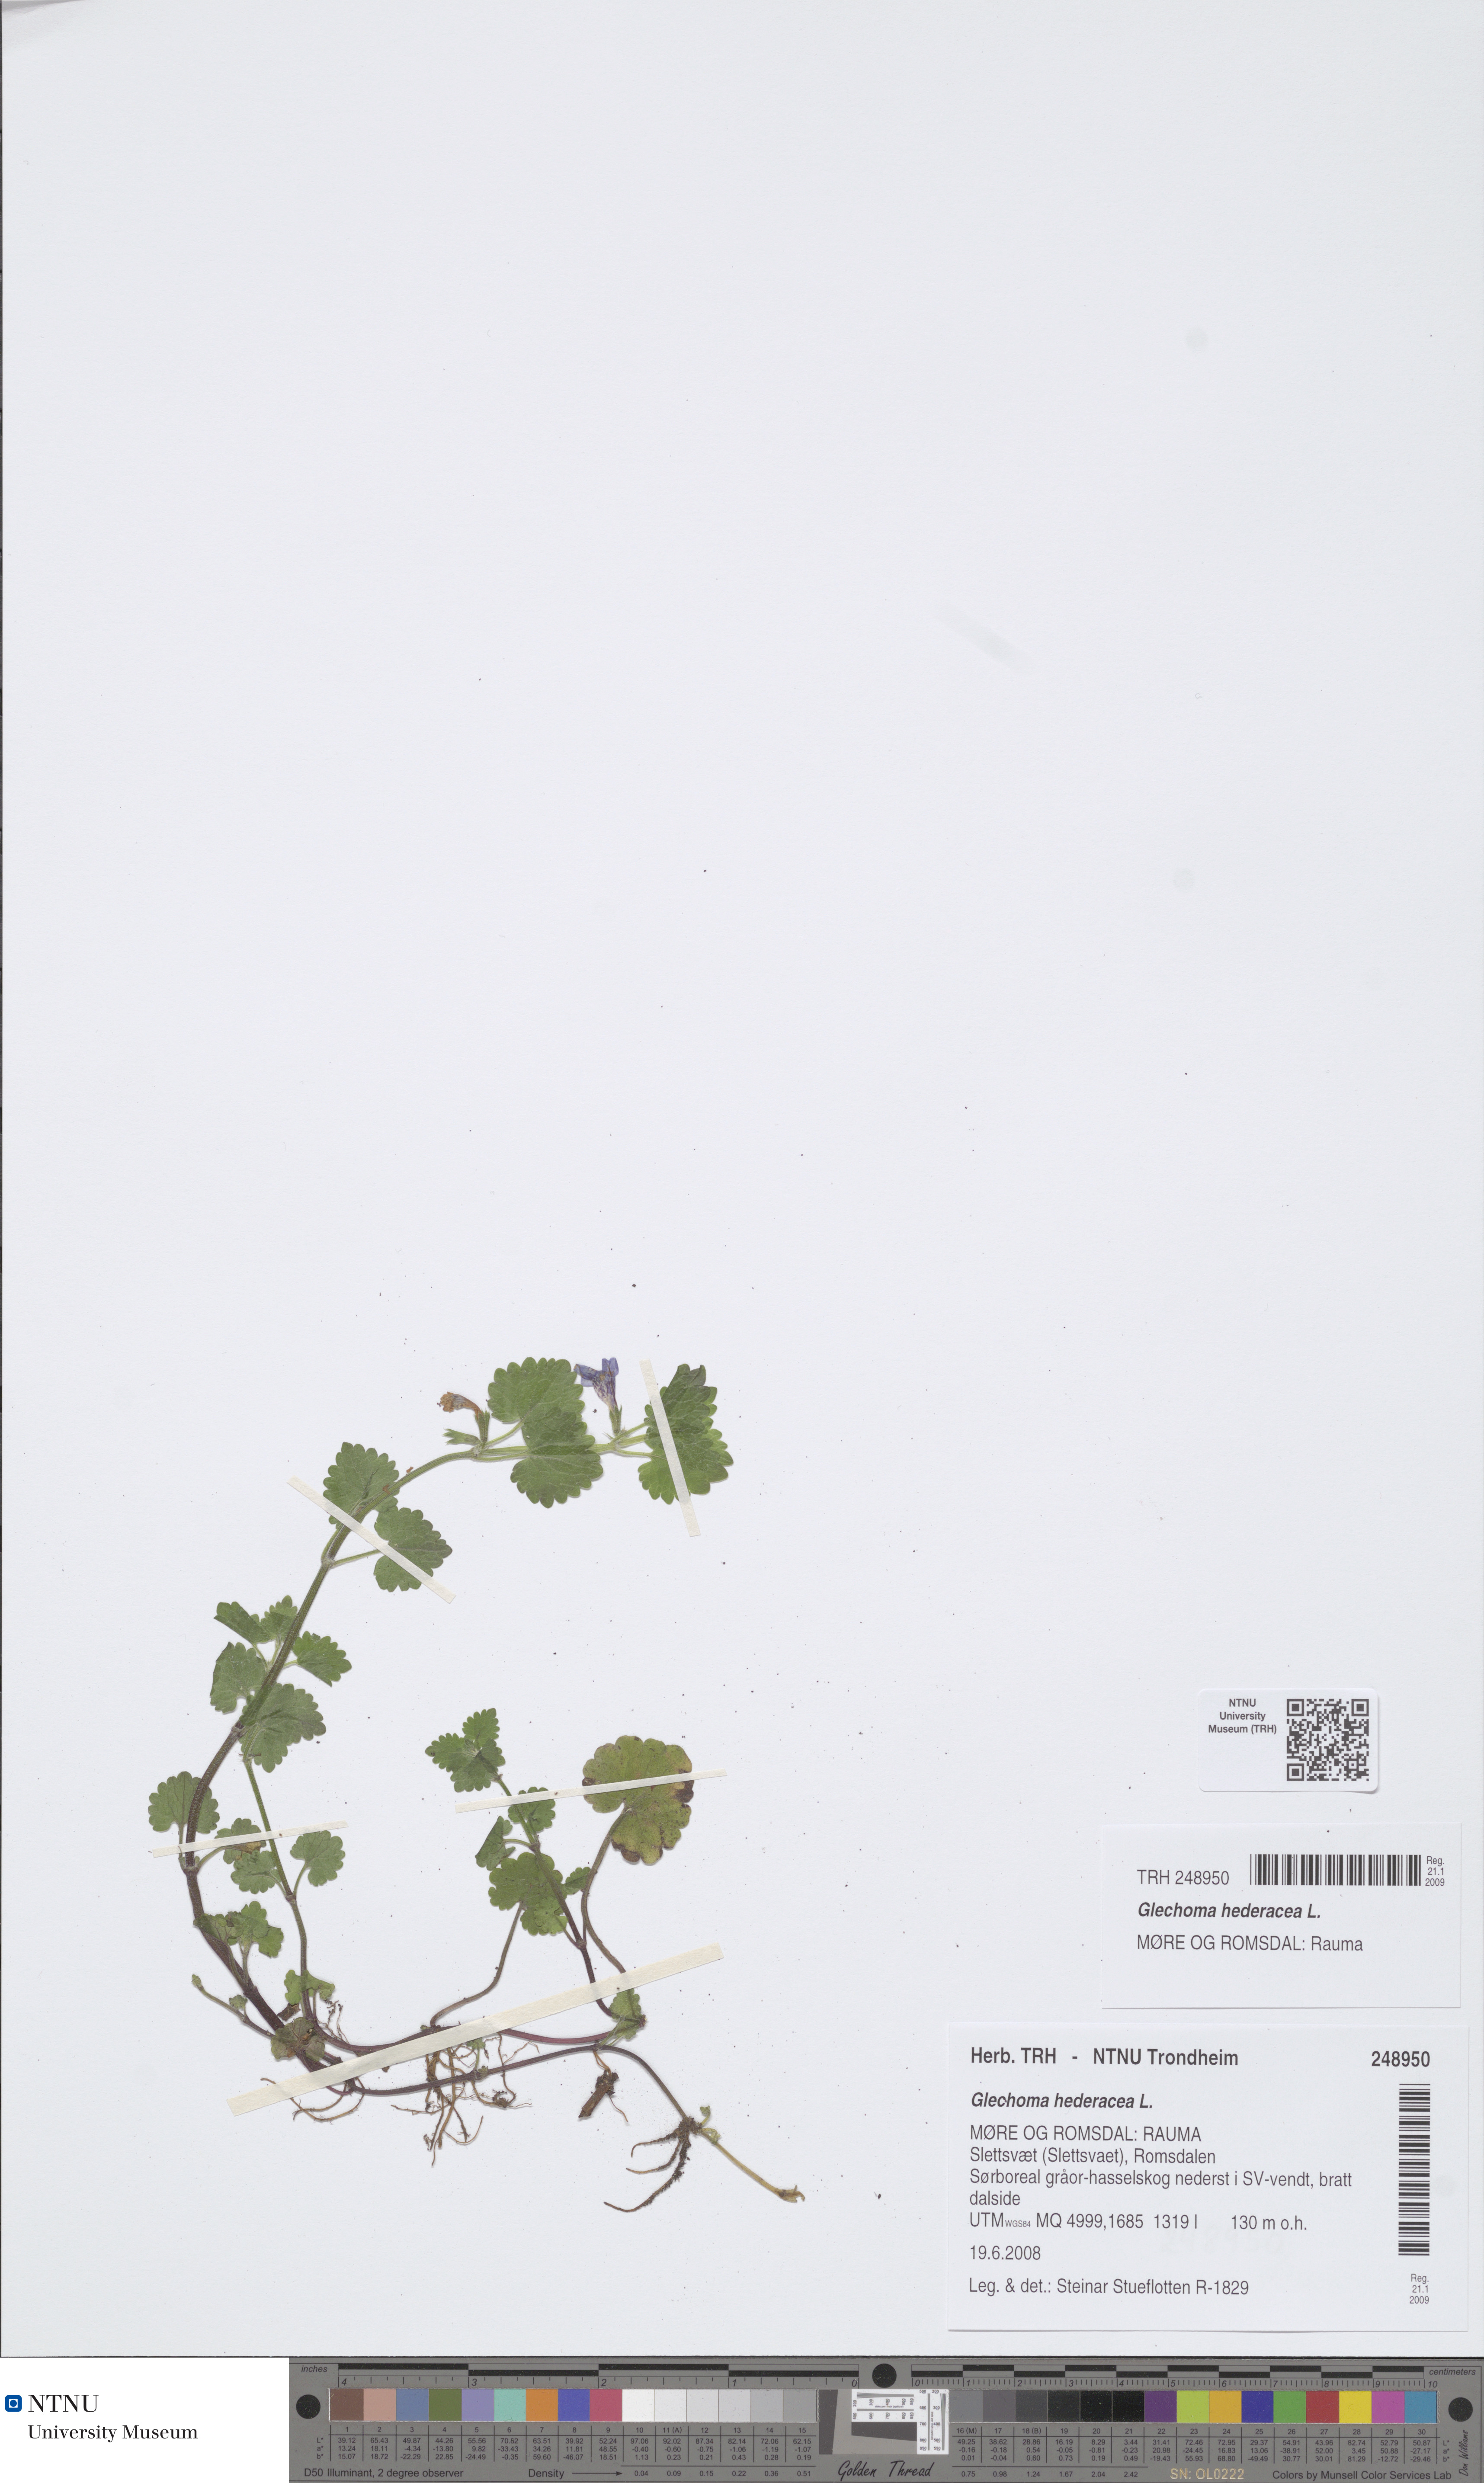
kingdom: Plantae
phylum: Tracheophyta
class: Magnoliopsida
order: Lamiales
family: Lamiaceae
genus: Glechoma
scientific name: Glechoma hederacea
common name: Ground ivy
